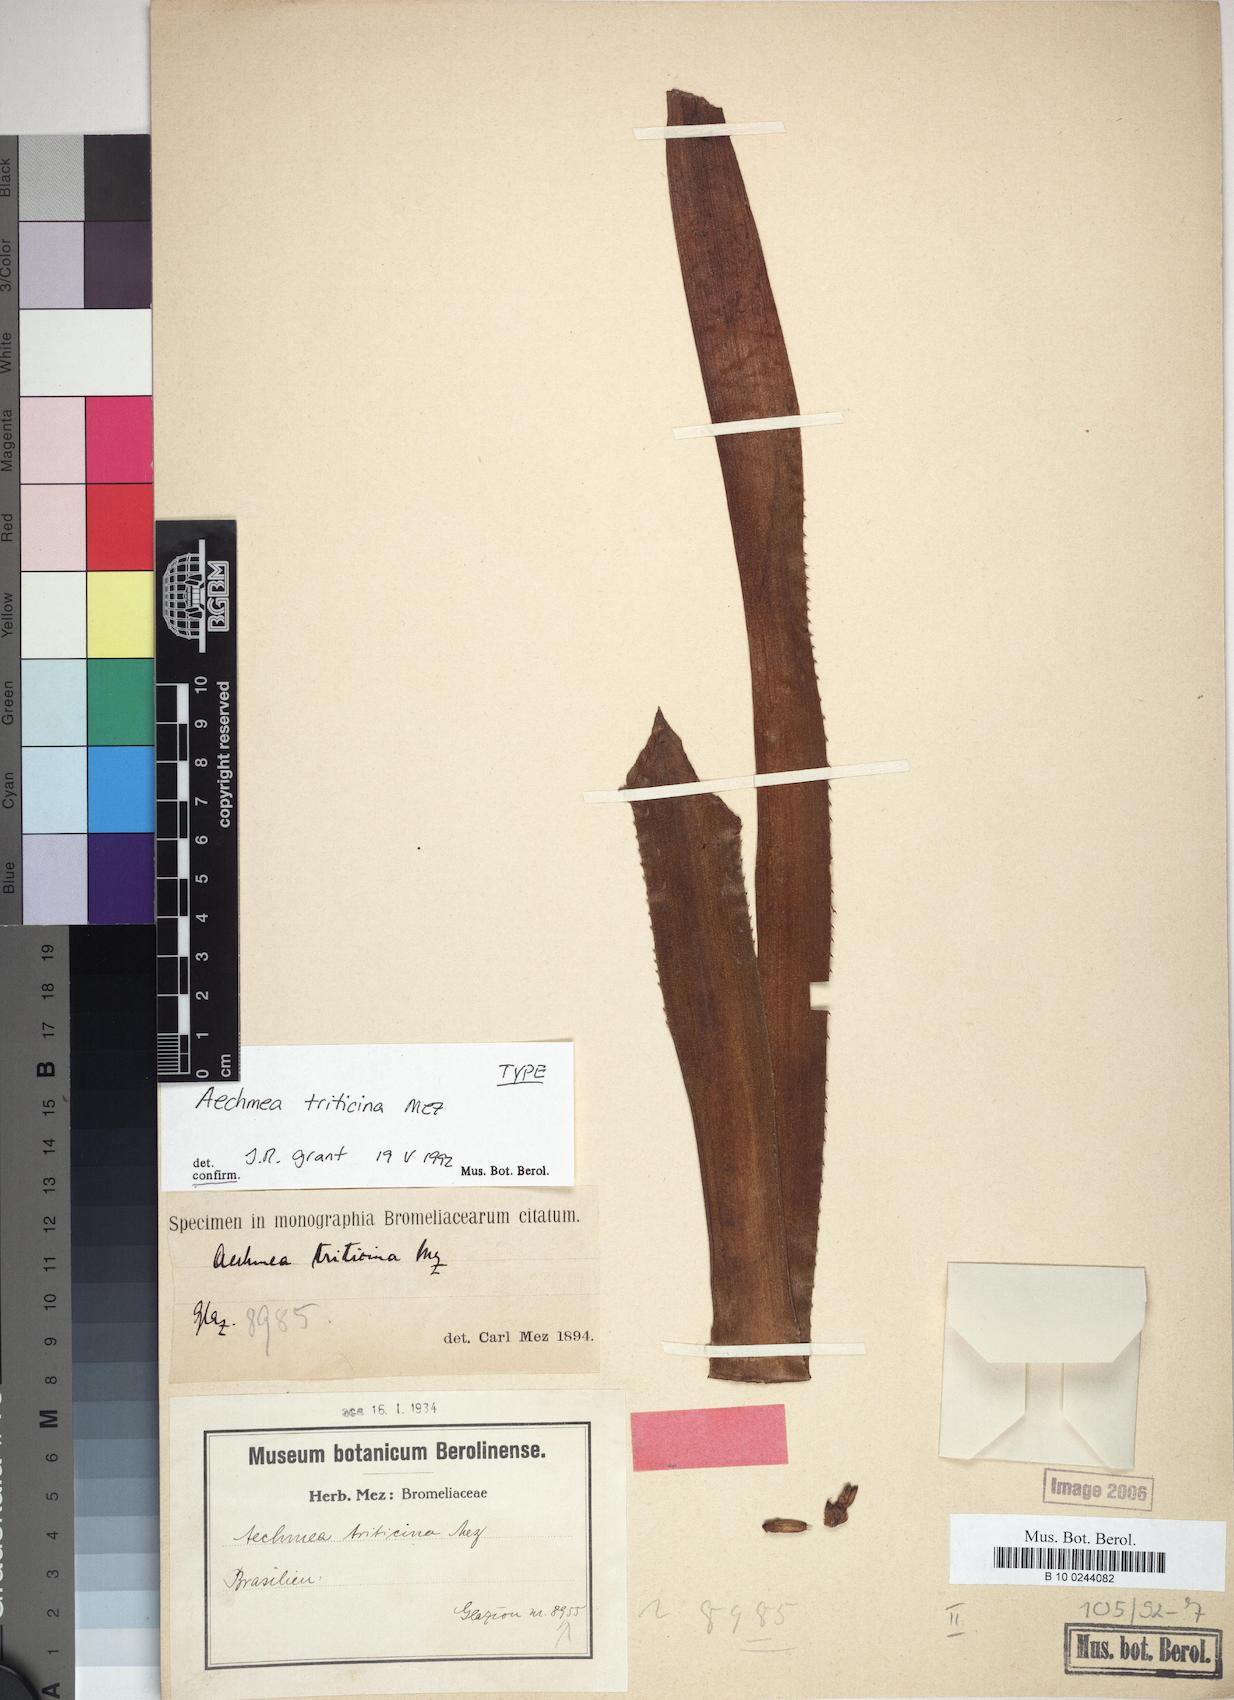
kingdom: Plantae
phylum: Tracheophyta
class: Liliopsida
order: Poales
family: Bromeliaceae
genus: Aechmea
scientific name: Aechmea triticina
